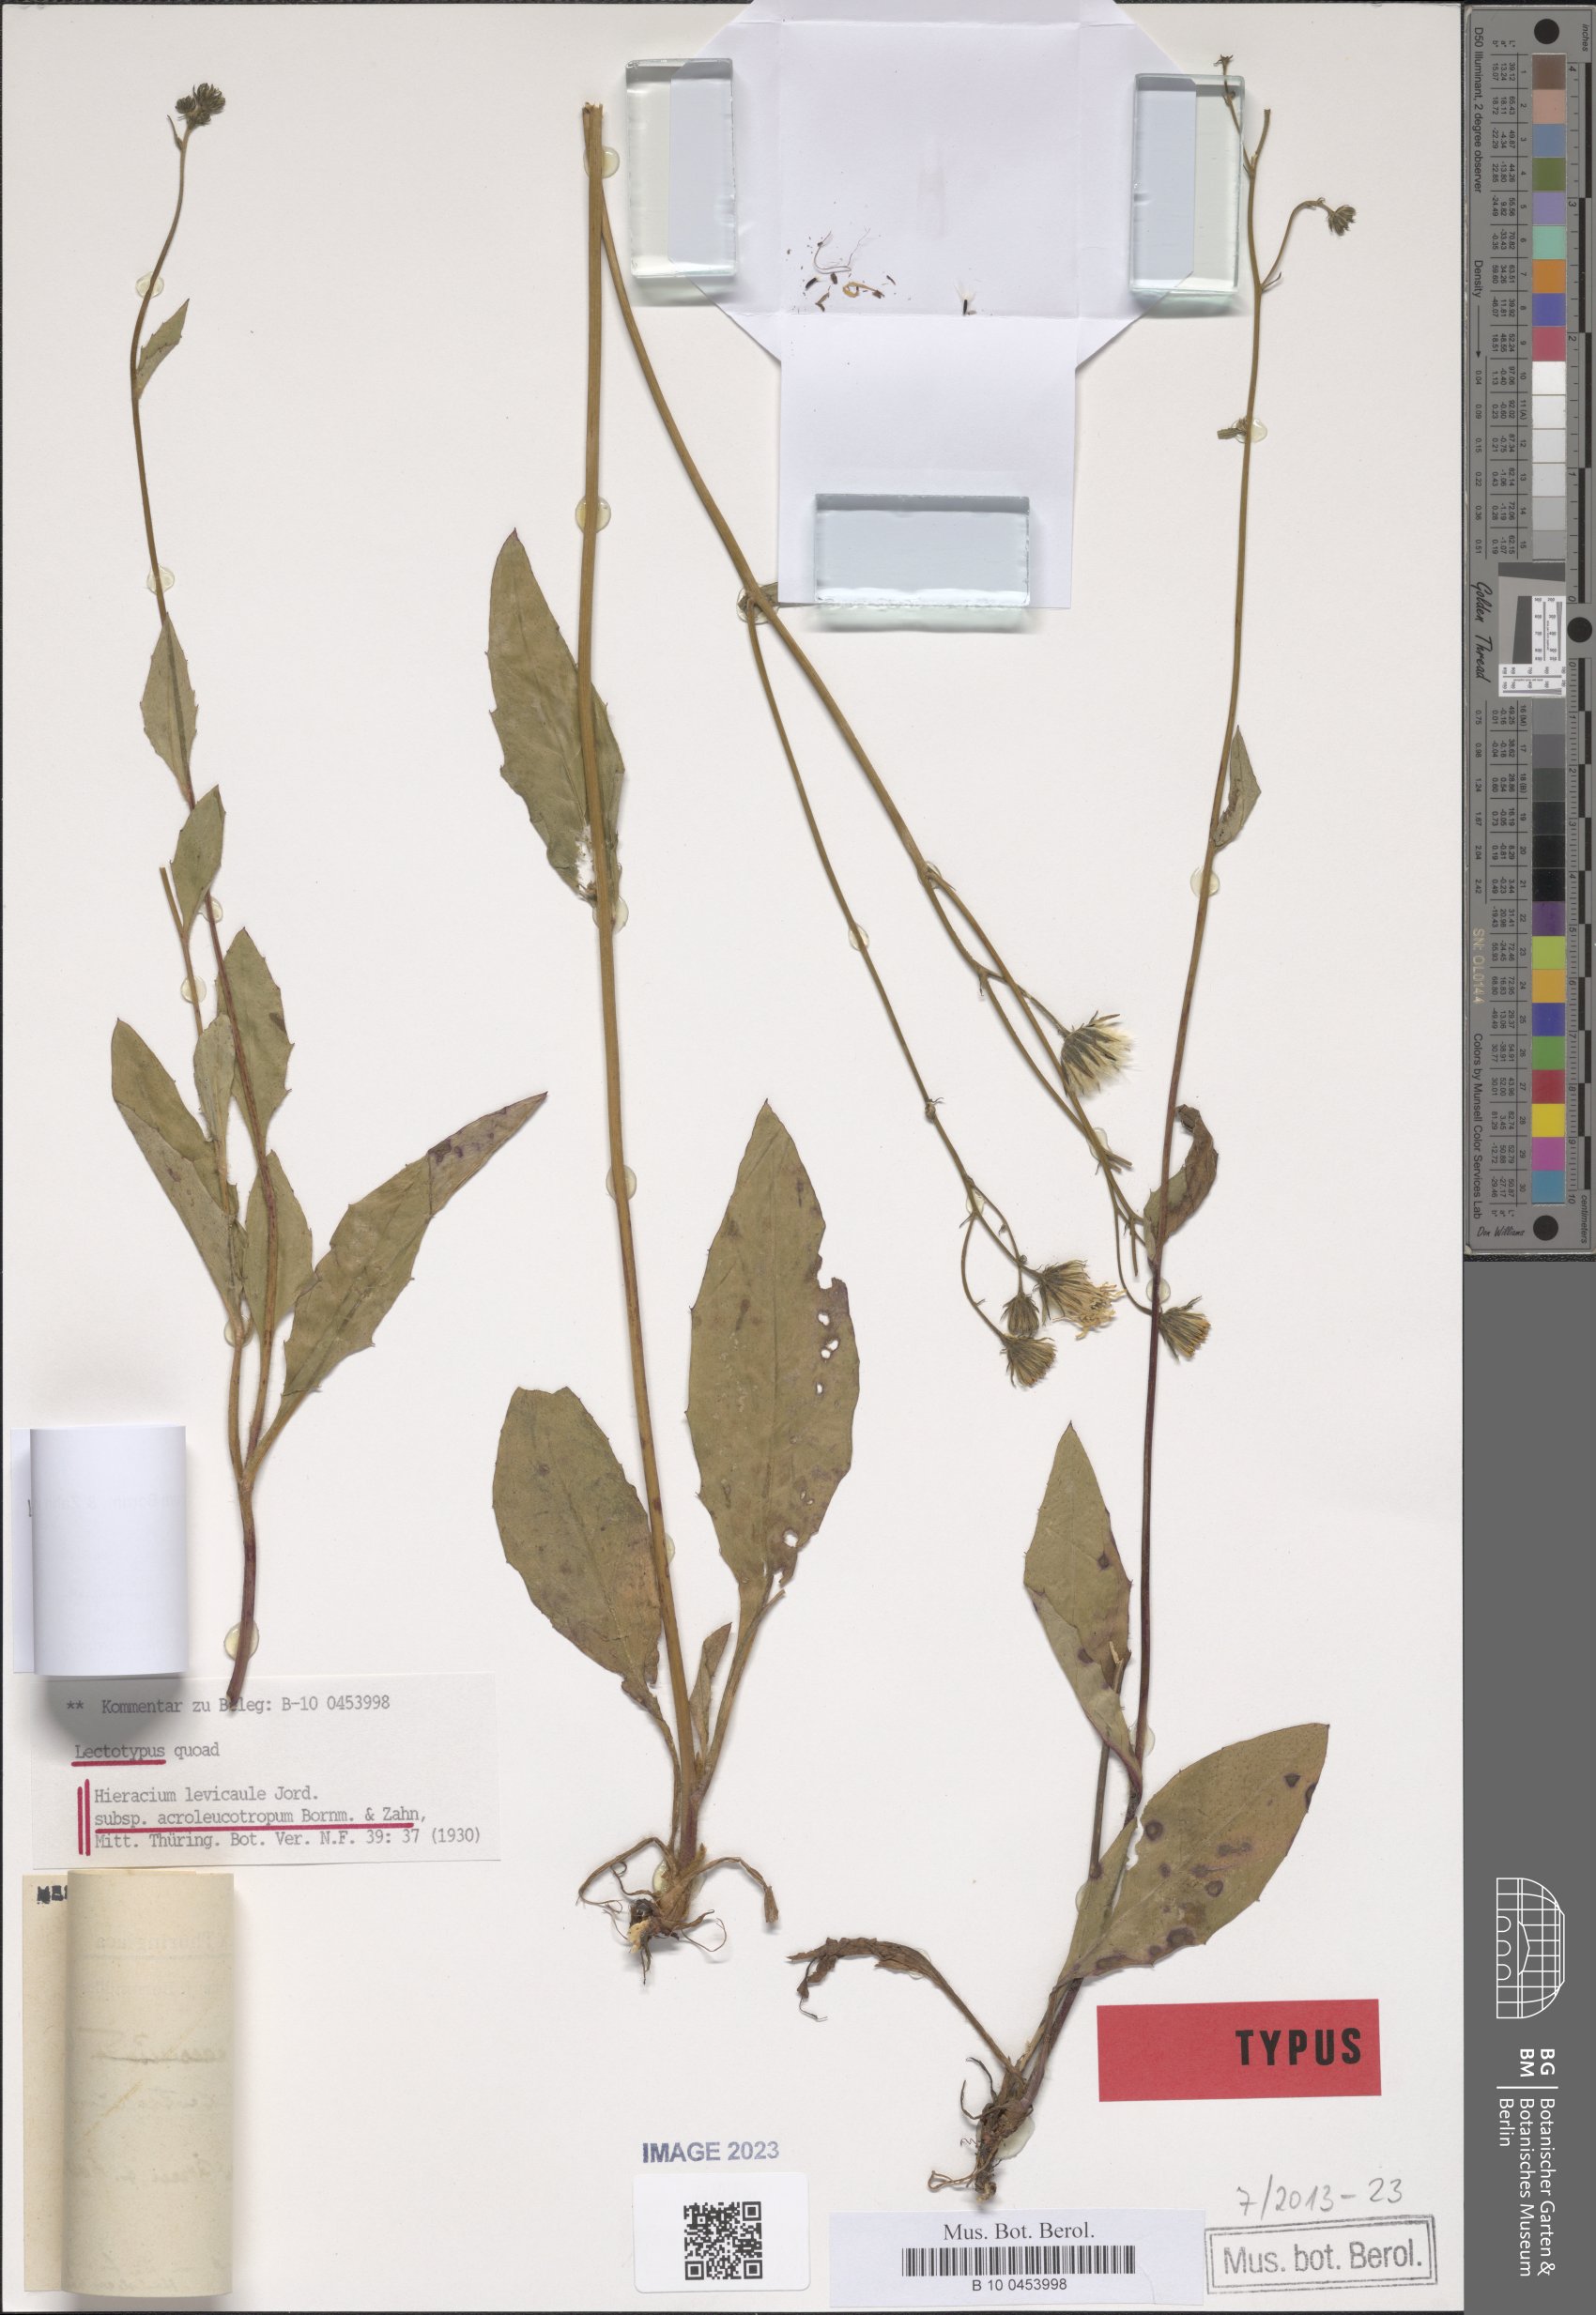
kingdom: Plantae
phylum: Tracheophyta
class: Magnoliopsida
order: Asterales
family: Asteraceae
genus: Hieracium
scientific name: Hieracium levicaule
